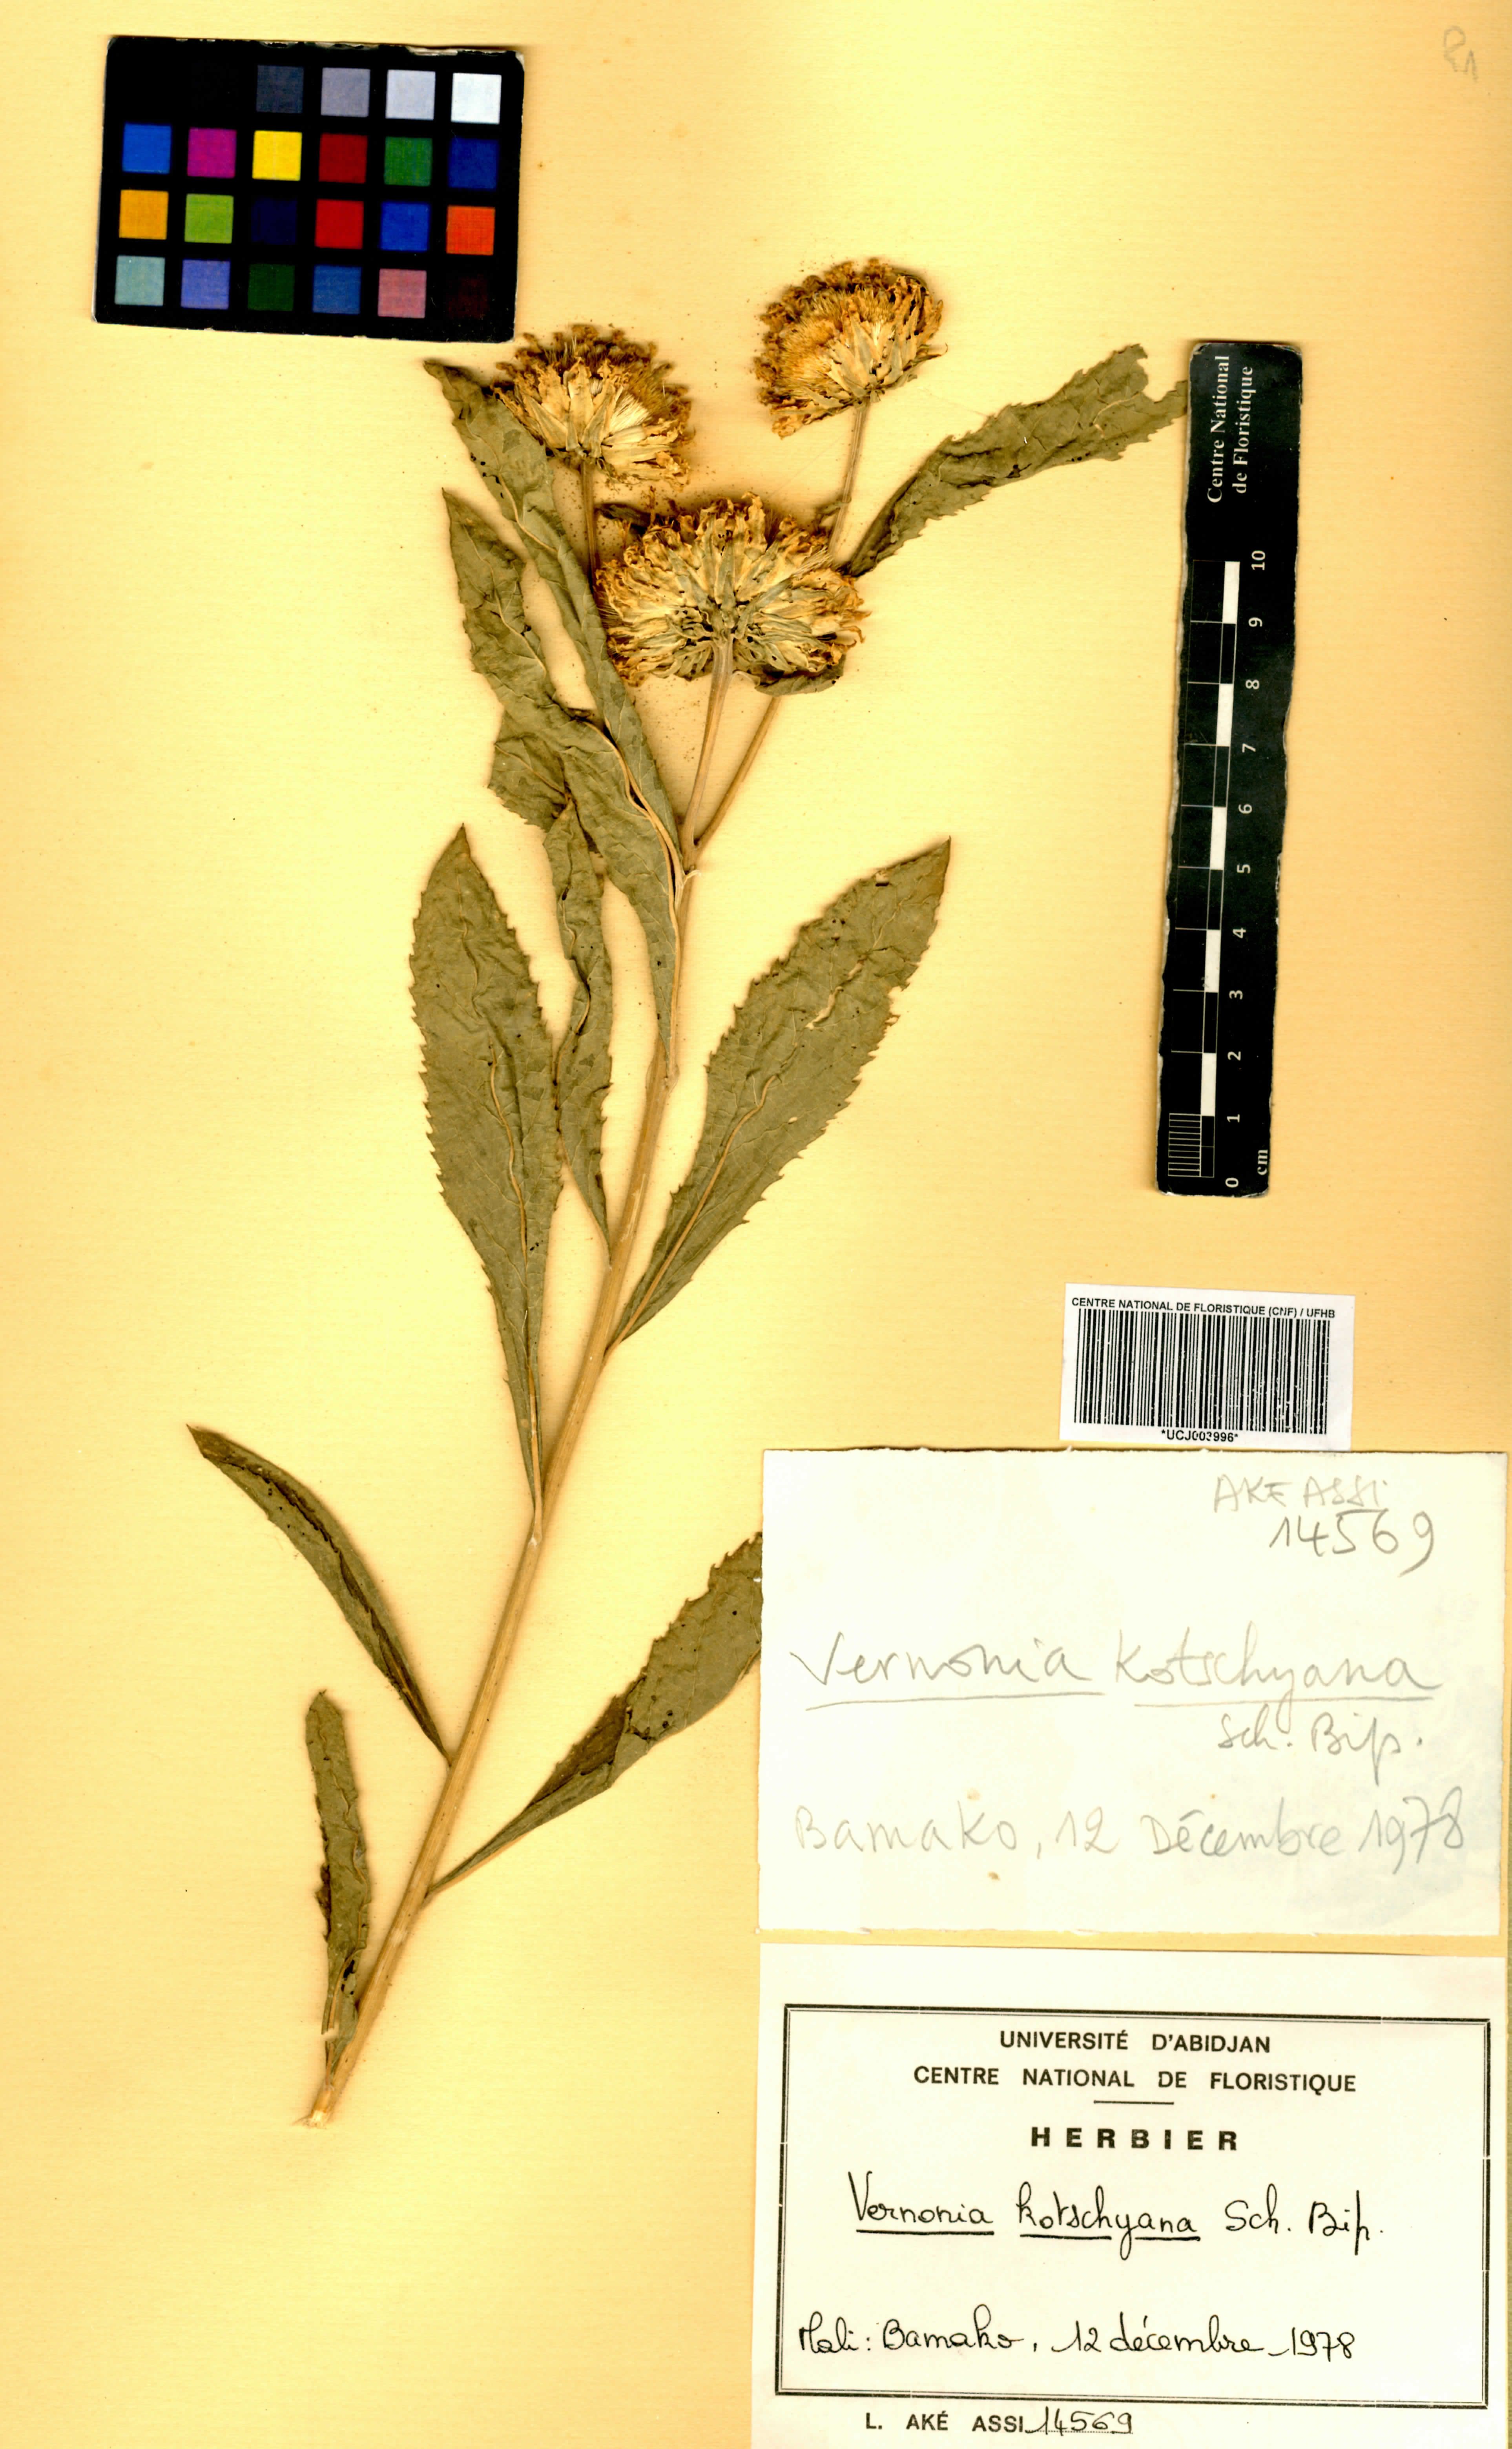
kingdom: Plantae
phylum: Tracheophyta
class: Magnoliopsida
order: Asterales
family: Asteraceae
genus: Baccharoides
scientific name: Baccharoides adoensis
